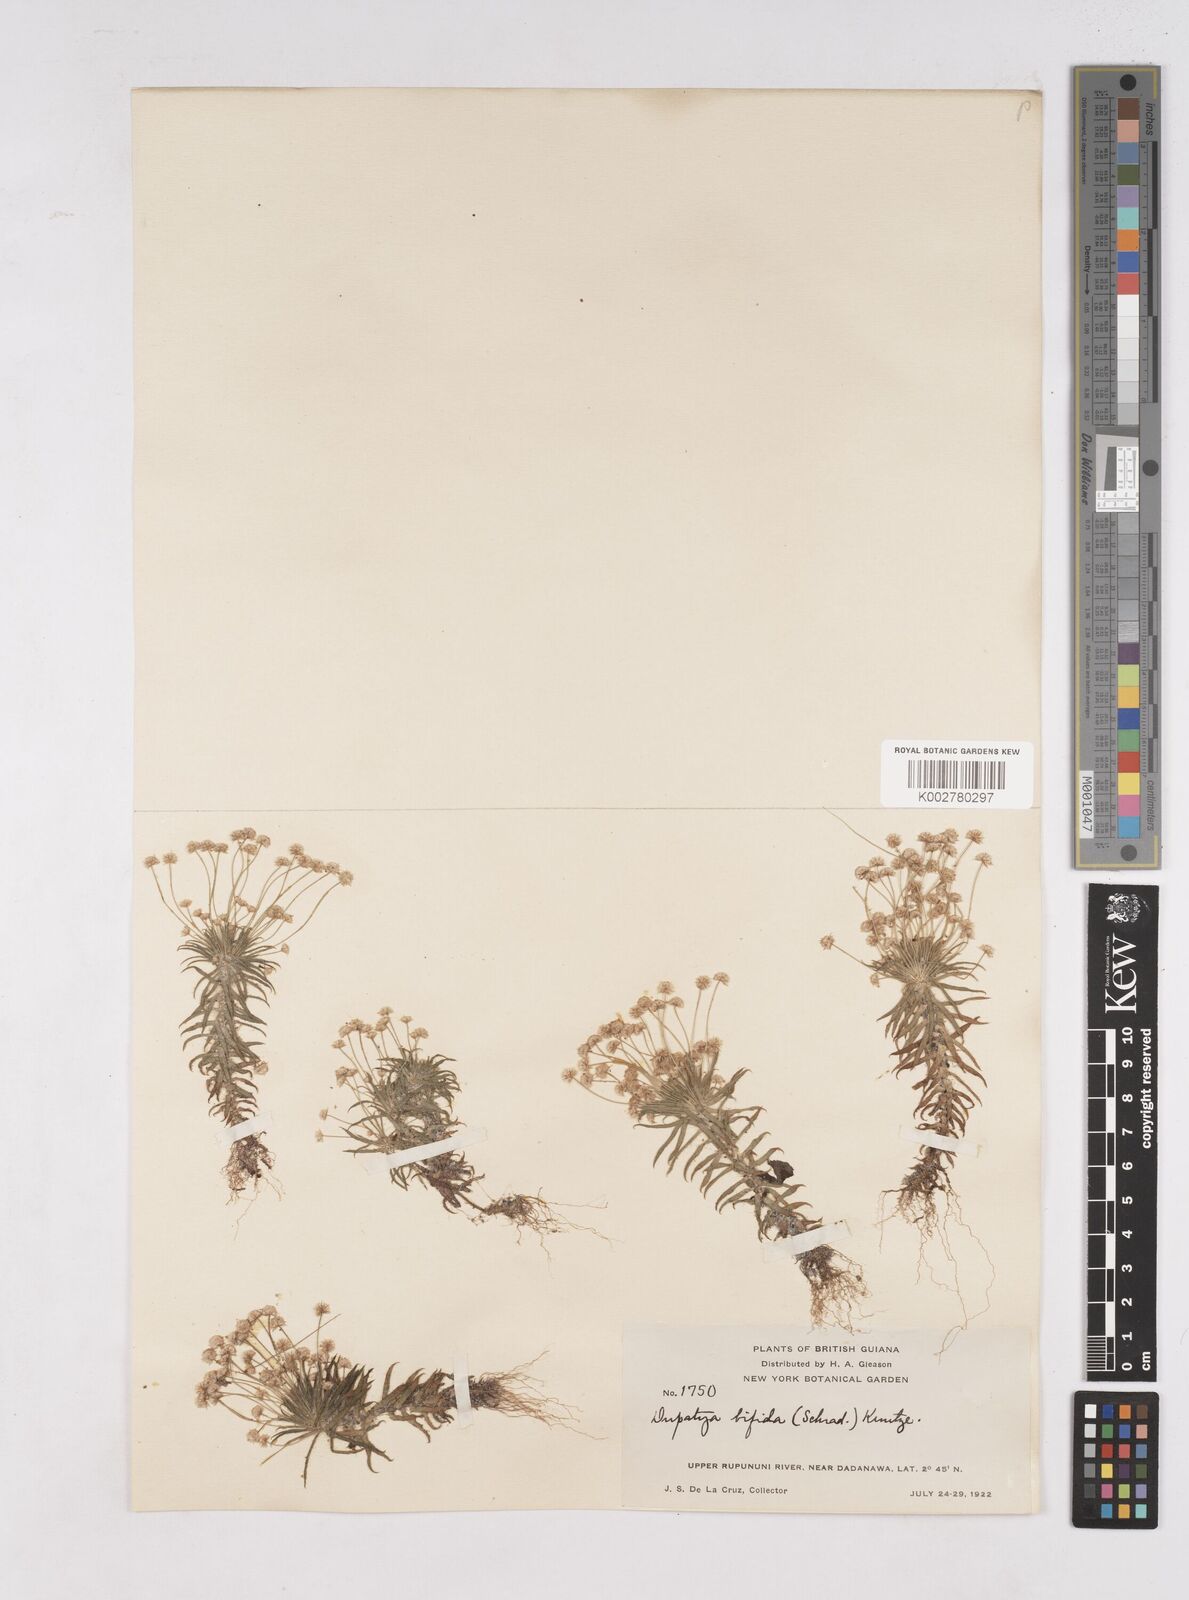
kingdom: Plantae
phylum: Tracheophyta
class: Liliopsida
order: Poales
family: Eriocaulaceae
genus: Paepalanthus
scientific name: Paepalanthus bifidus
